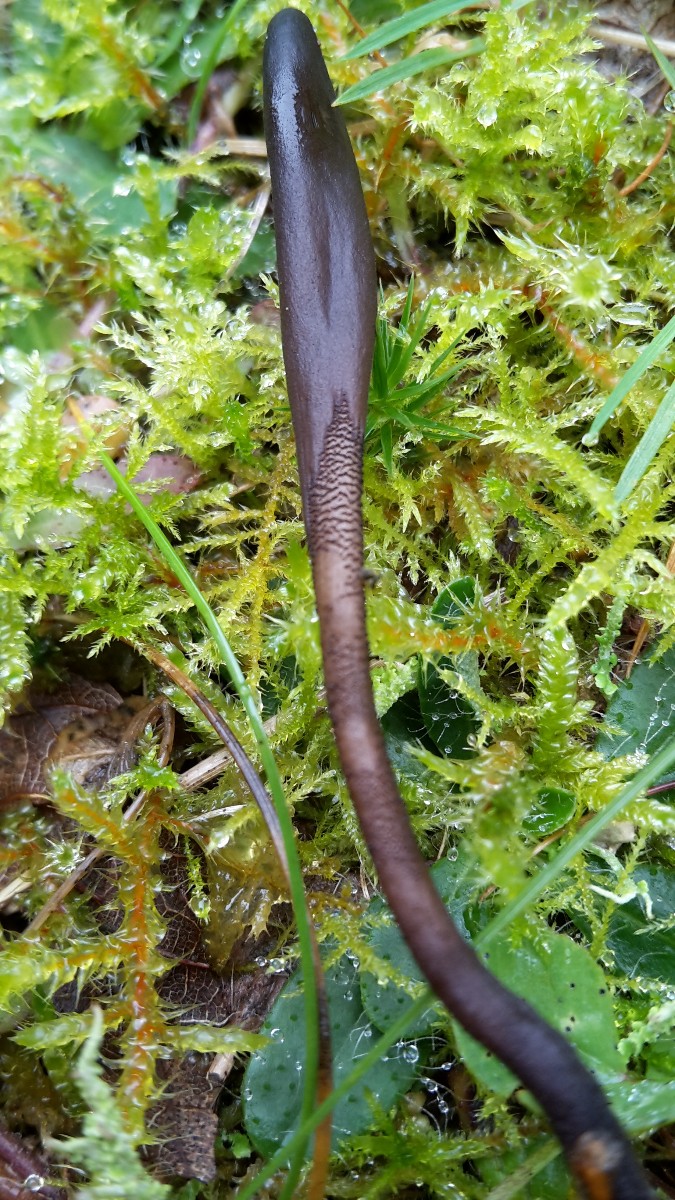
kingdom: Fungi
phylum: Ascomycota
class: Geoglossomycetes
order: Geoglossales
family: Geoglossaceae
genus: Geoglossum
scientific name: Geoglossum
